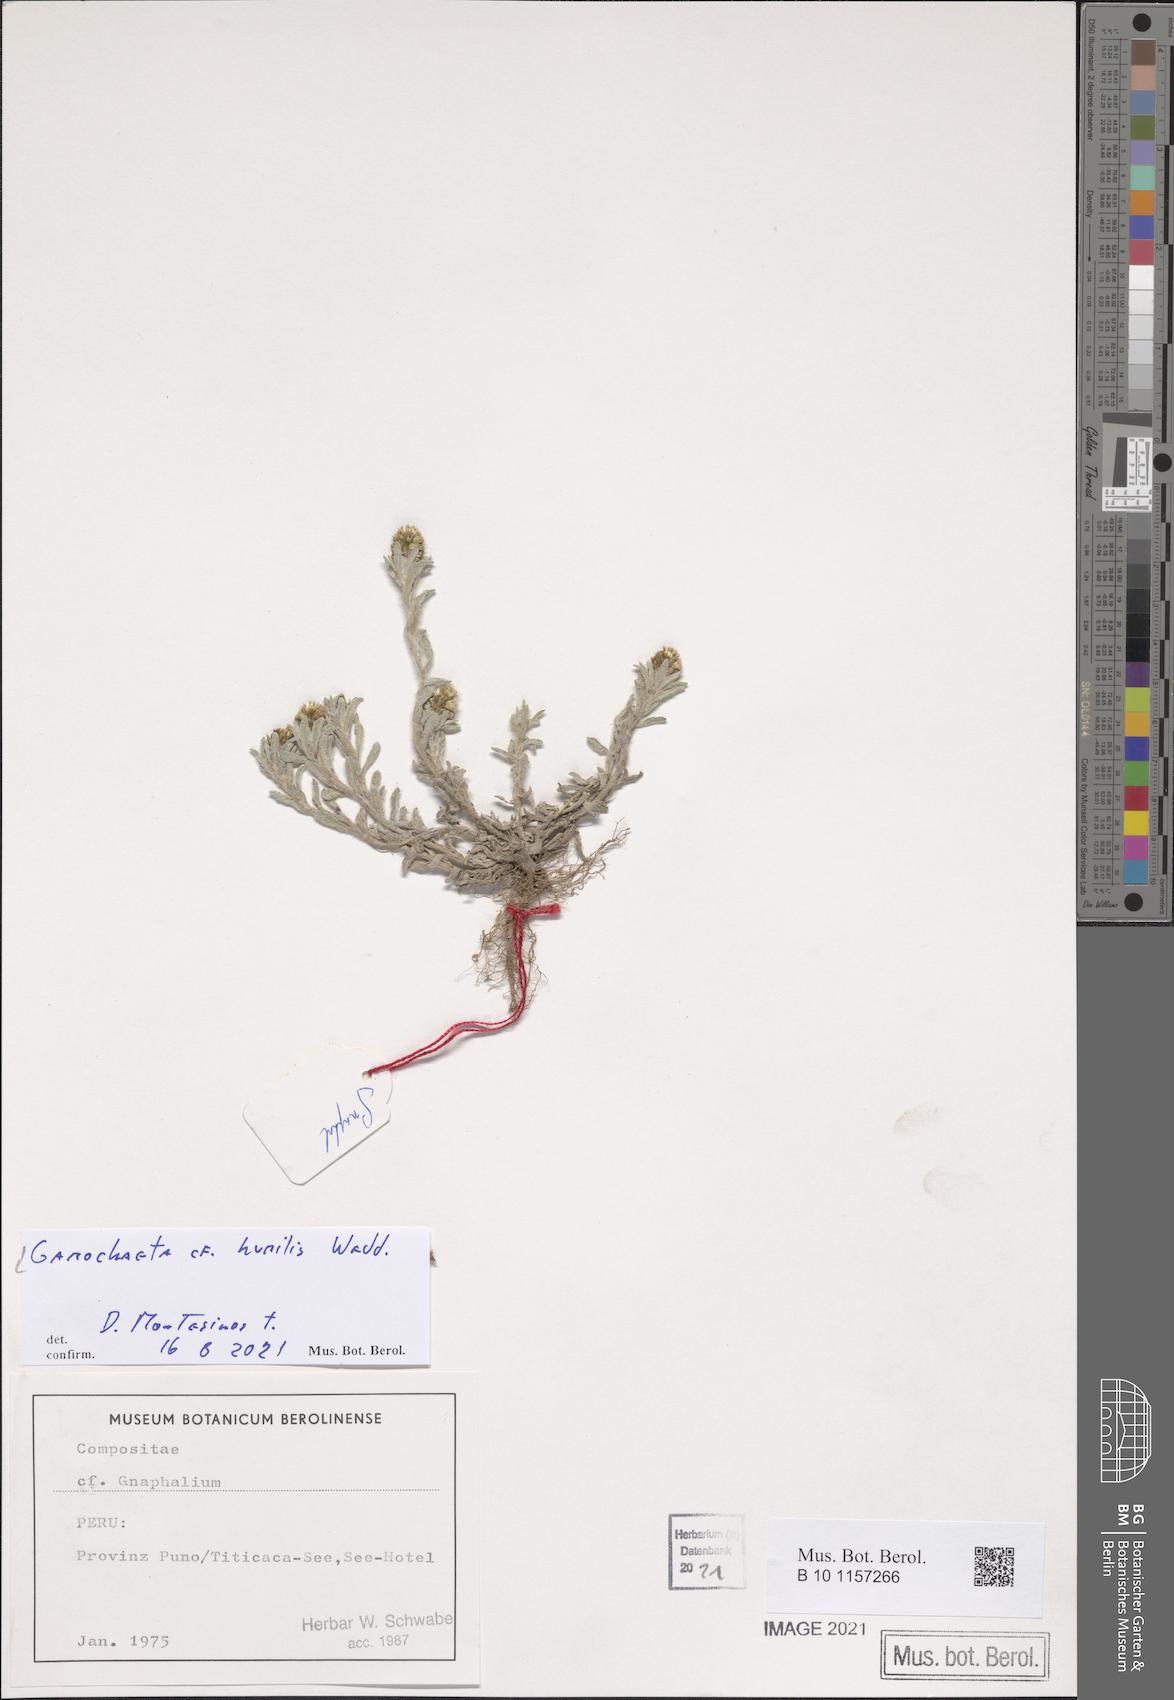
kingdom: Plantae
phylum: Tracheophyta
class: Magnoliopsida
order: Asterales
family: Asteraceae
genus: Gamochaeta
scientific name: Gamochaeta humilis
